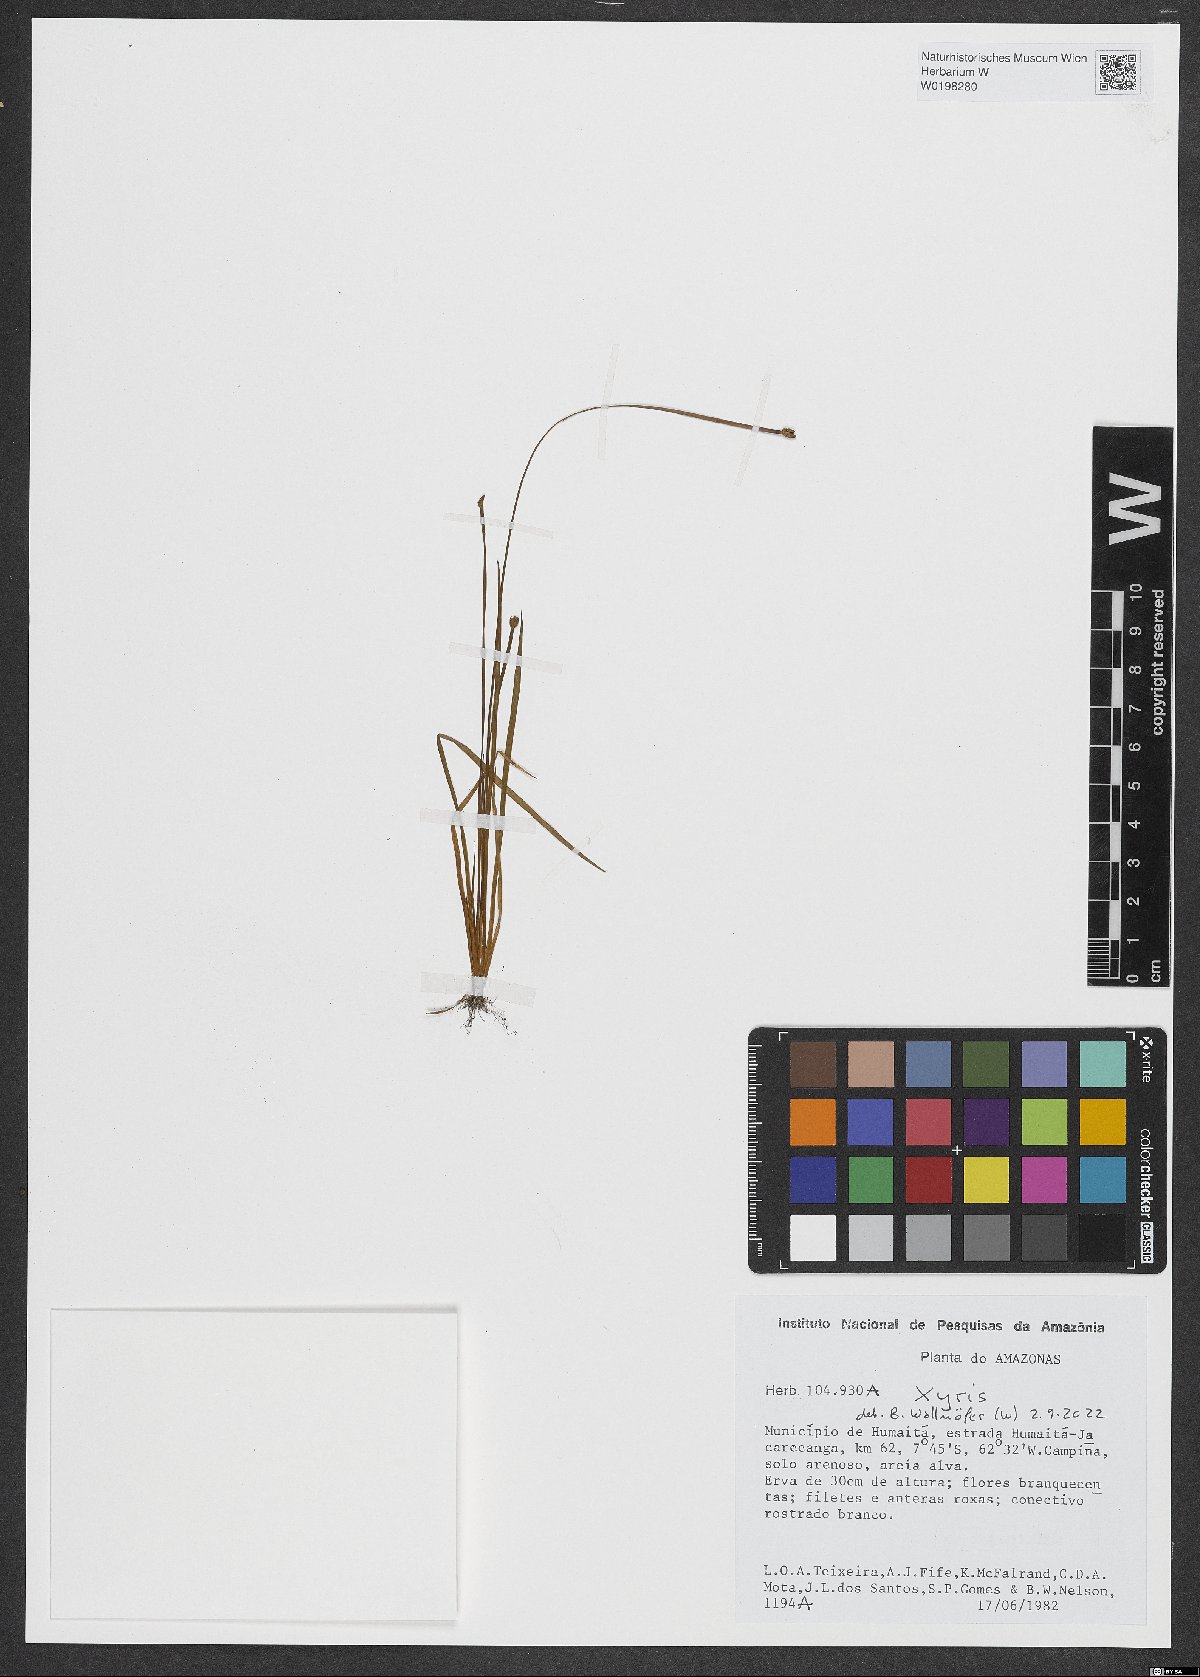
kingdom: Plantae
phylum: Tracheophyta
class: Liliopsida
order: Poales
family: Xyridaceae
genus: Xyris
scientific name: Xyris
